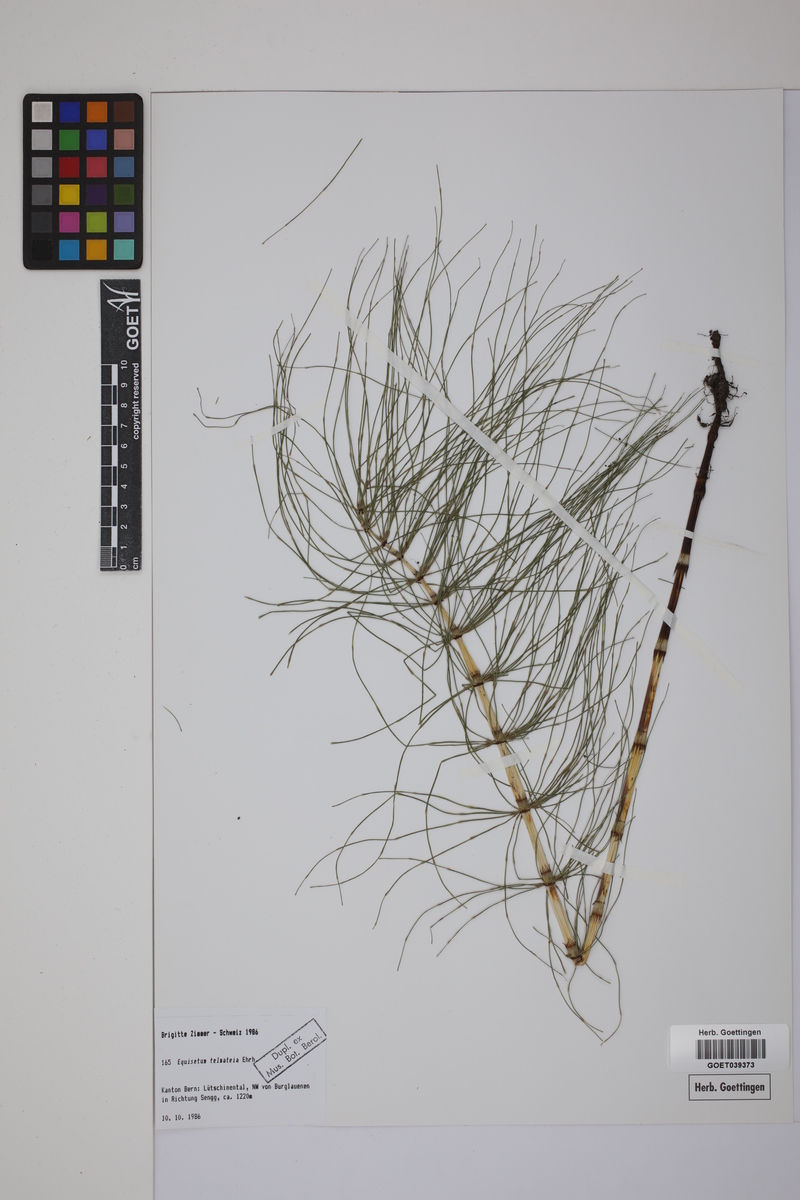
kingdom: Plantae
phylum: Tracheophyta
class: Polypodiopsida
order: Equisetales
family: Equisetaceae
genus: Equisetum
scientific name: Equisetum telmateia
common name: Great horsetail
